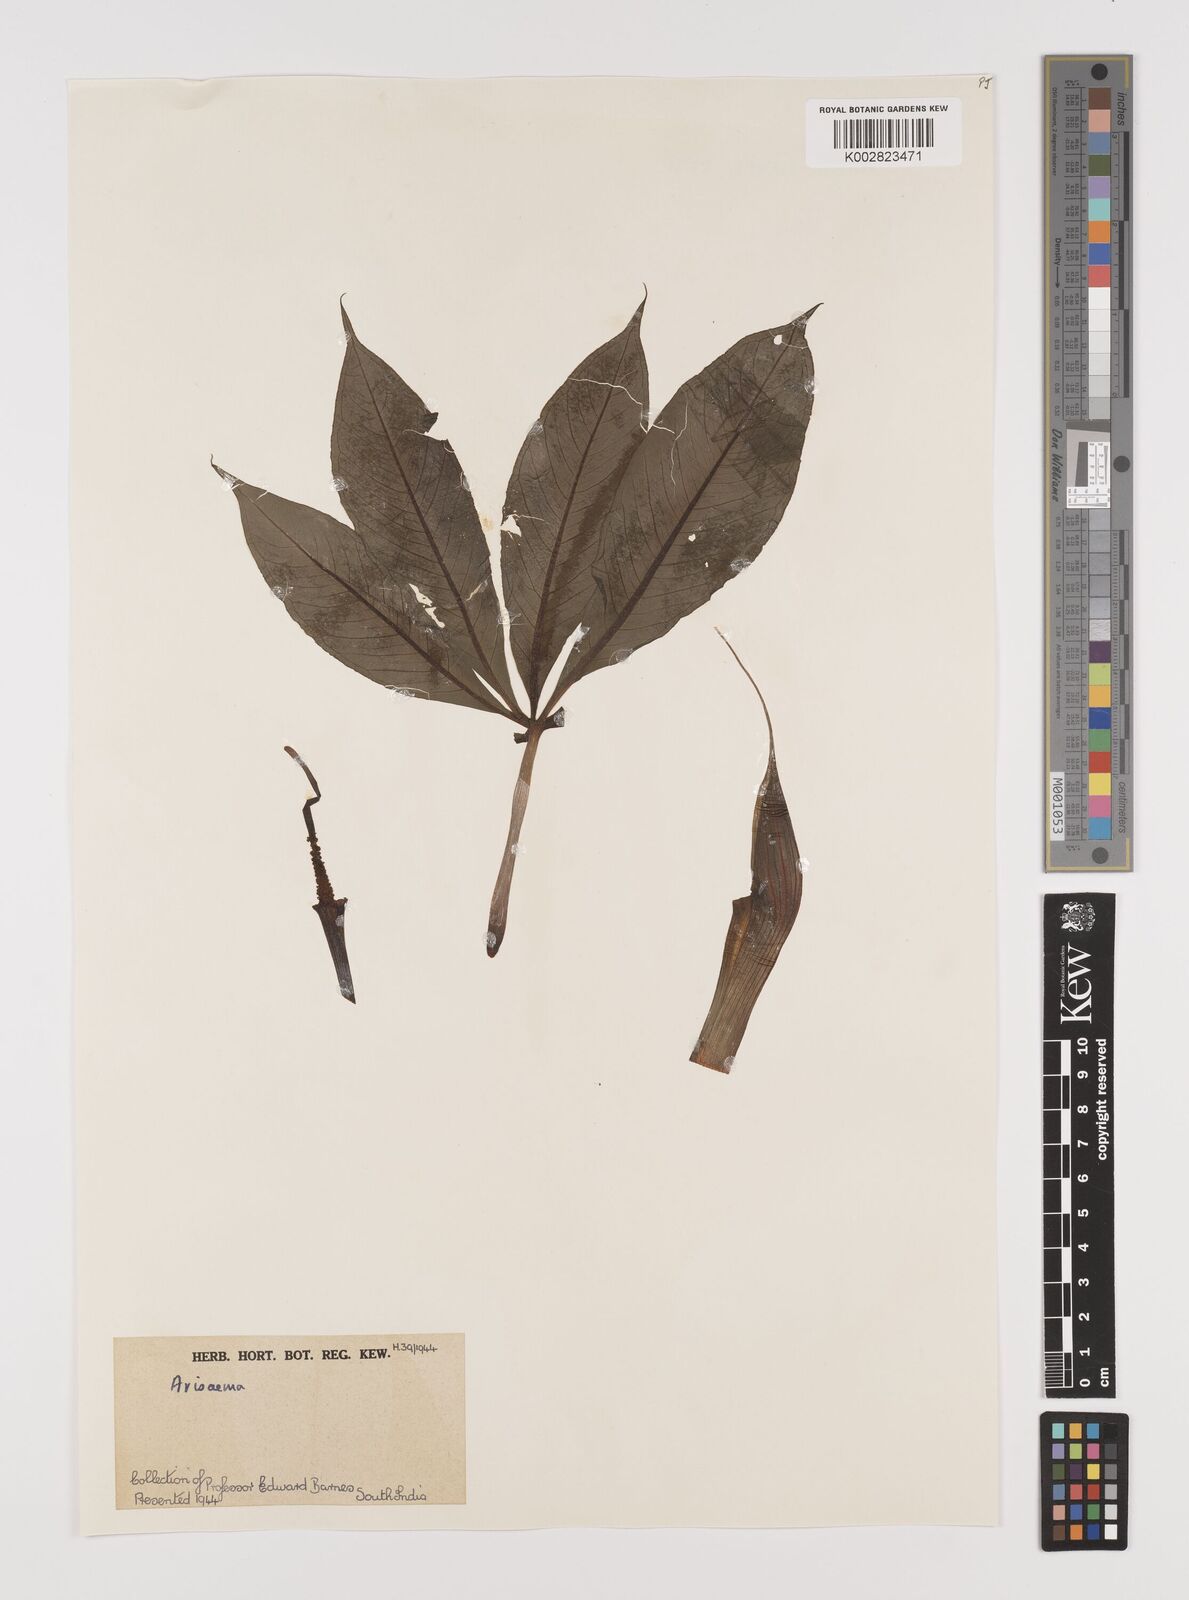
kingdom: Plantae
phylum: Tracheophyta
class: Liliopsida
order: Alismatales
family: Araceae
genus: Arisaema
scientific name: Arisaema
